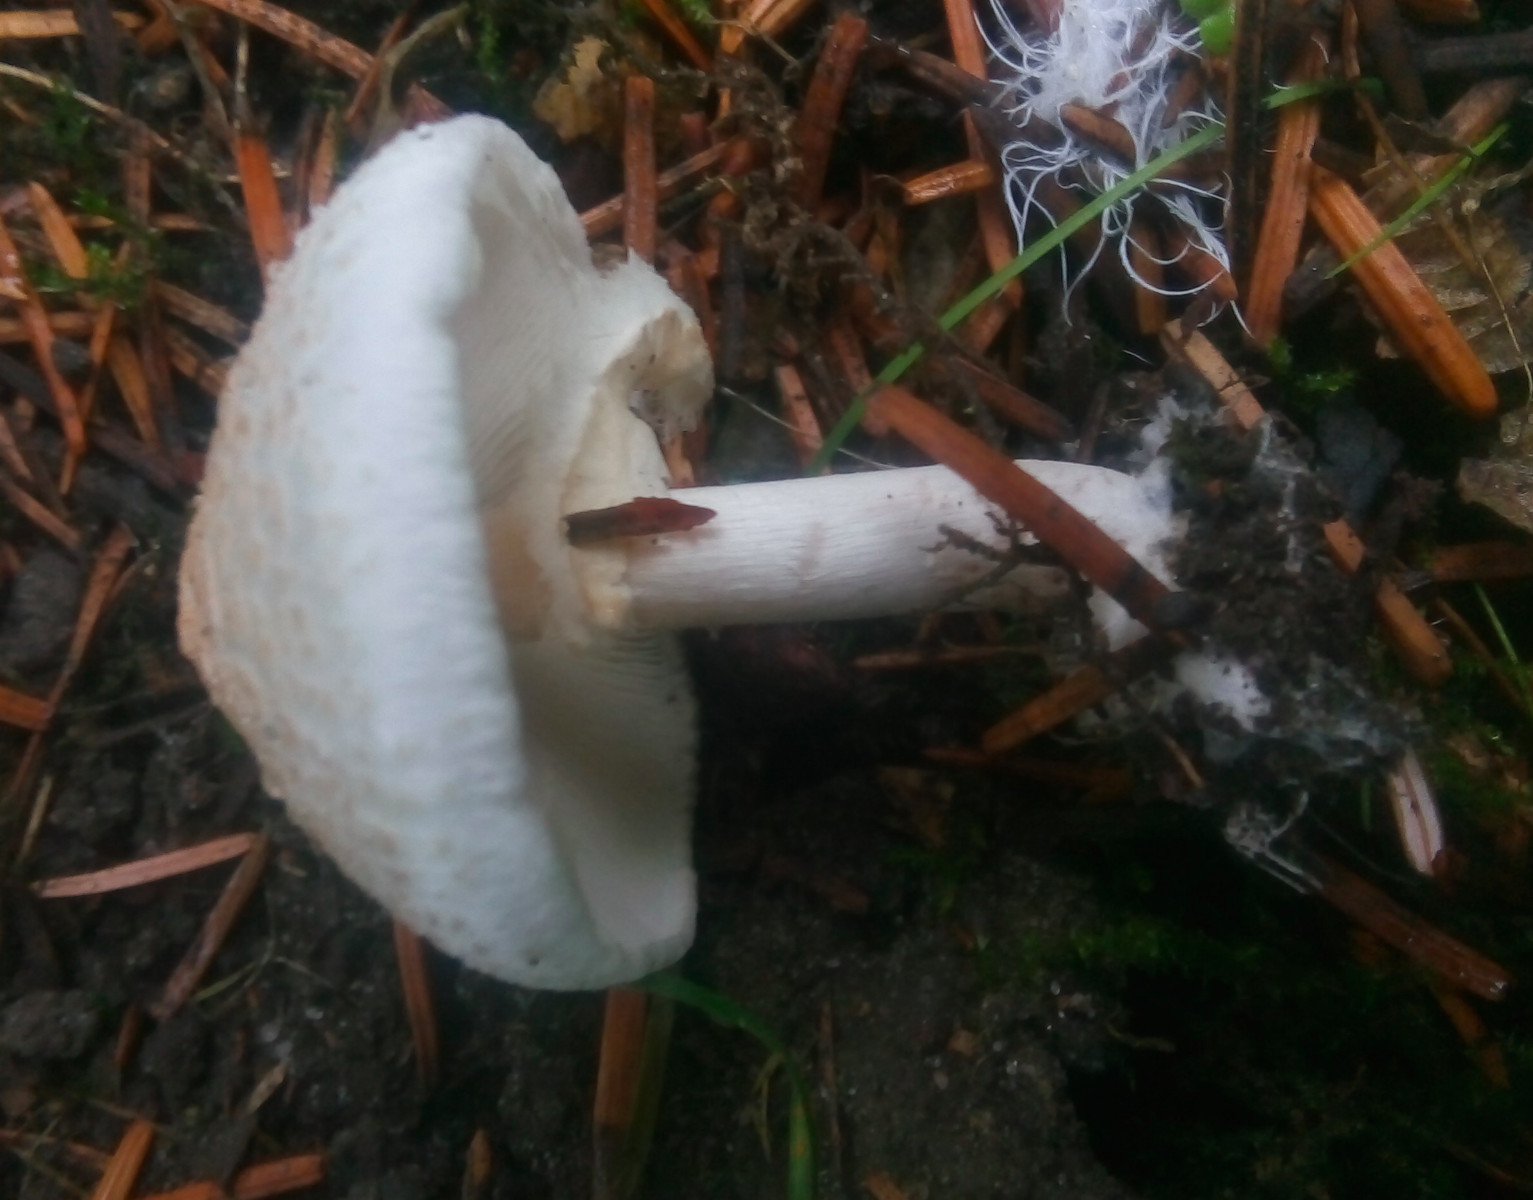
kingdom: Fungi
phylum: Basidiomycota
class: Agaricomycetes
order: Agaricales
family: Agaricaceae
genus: Lepiota
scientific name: Lepiota cristata
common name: stinkende parasolhat
